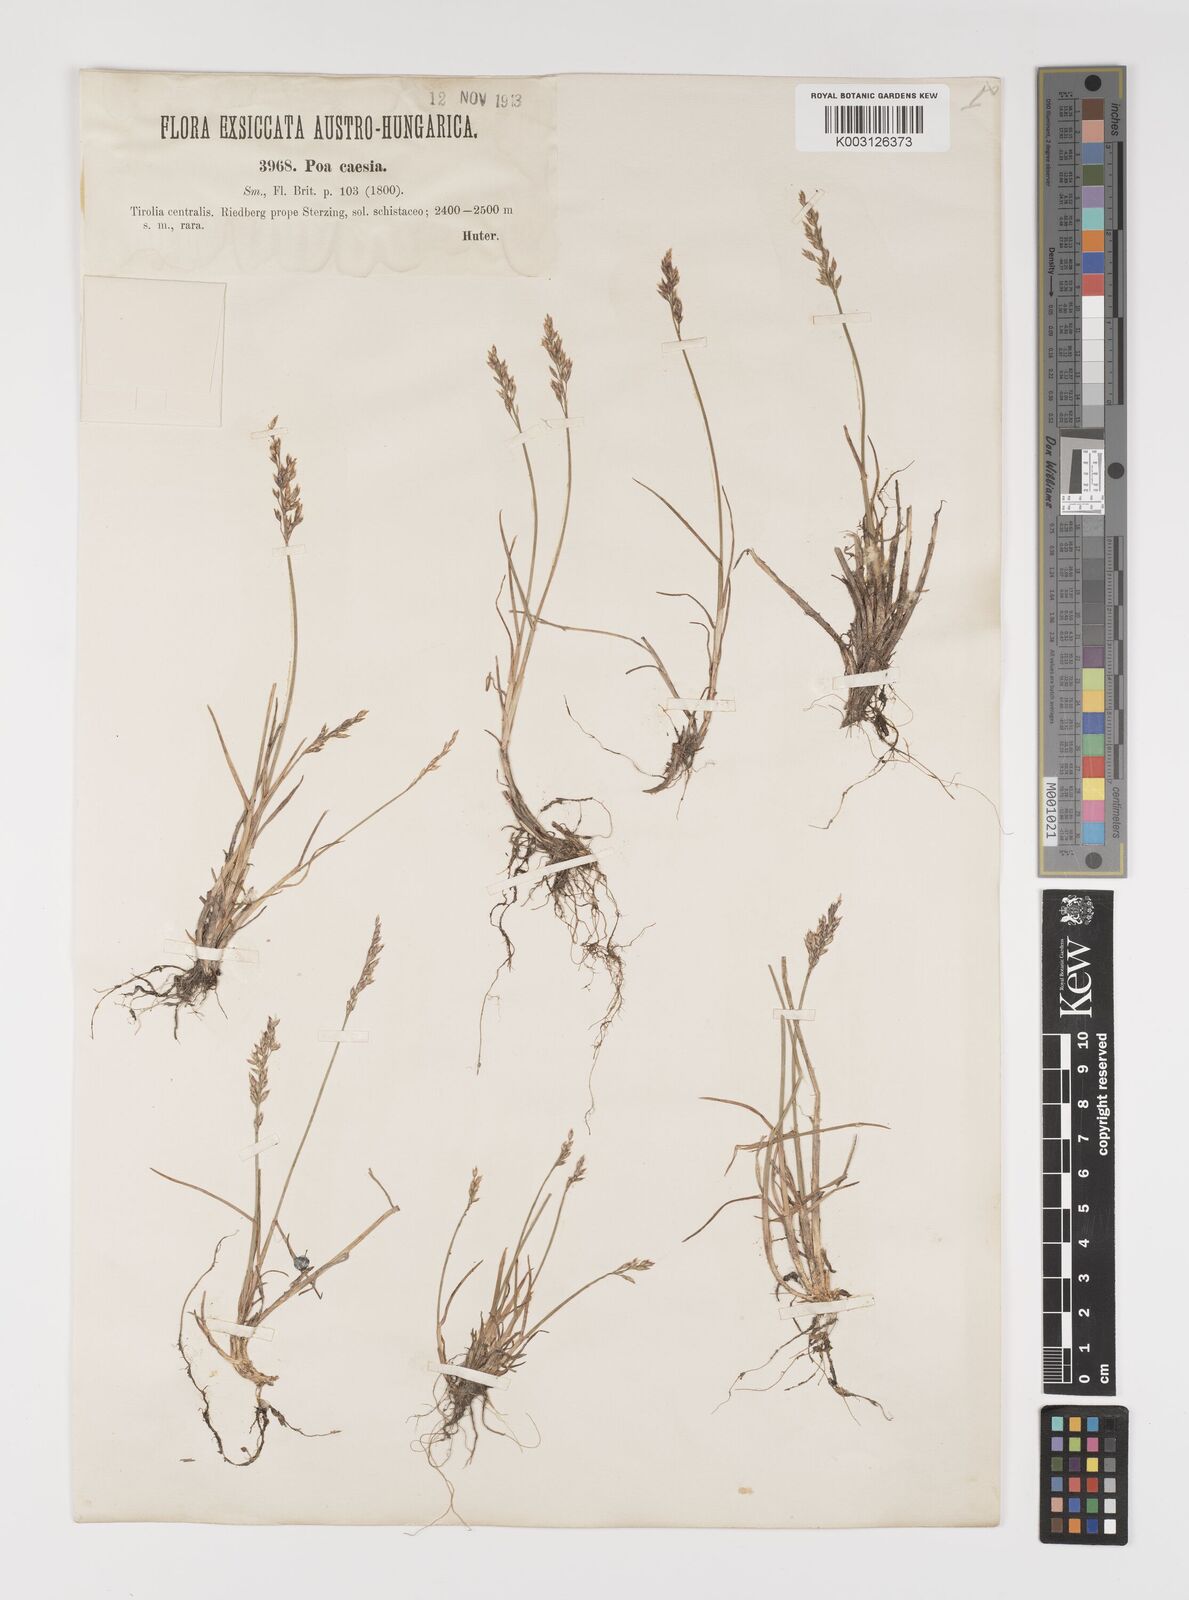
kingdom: Plantae
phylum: Tracheophyta
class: Liliopsida
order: Poales
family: Poaceae
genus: Poa
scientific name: Poa glauca
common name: Glaucous bluegrass
